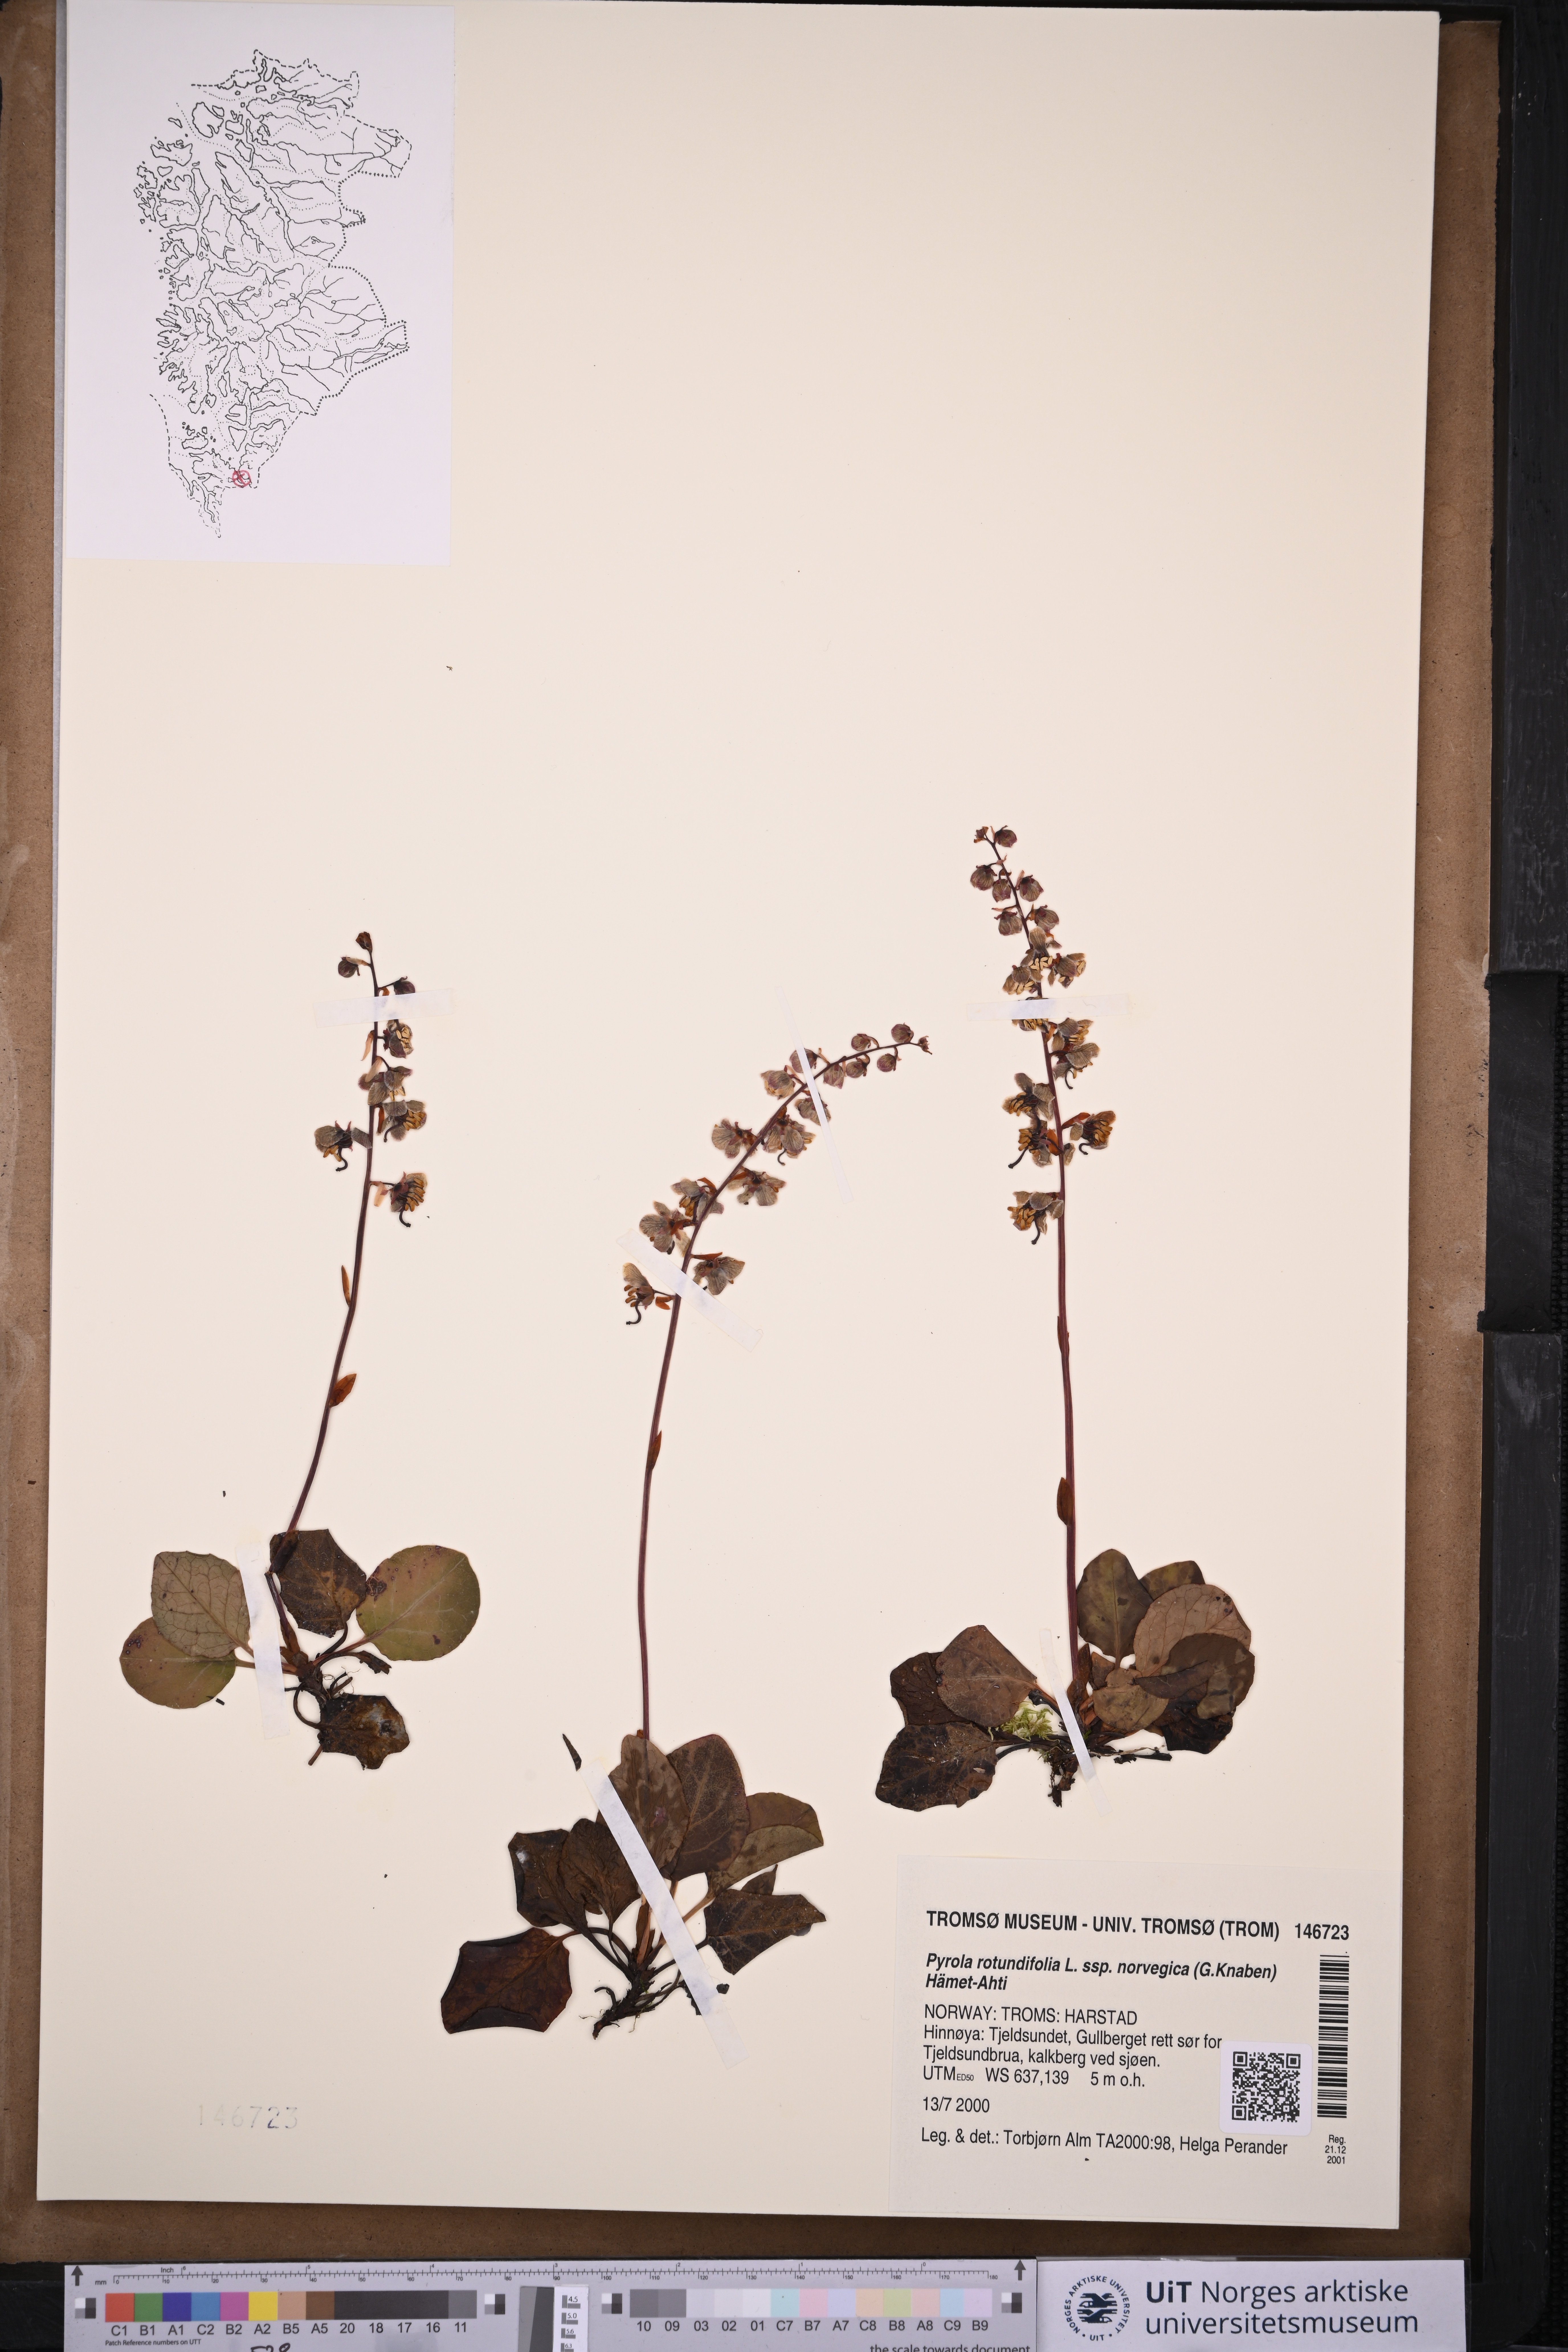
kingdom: Plantae
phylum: Tracheophyta
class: Magnoliopsida
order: Ericales
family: Ericaceae
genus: Pyrola
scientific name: Pyrola rotundifolia
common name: Round-leaved wintergreen
